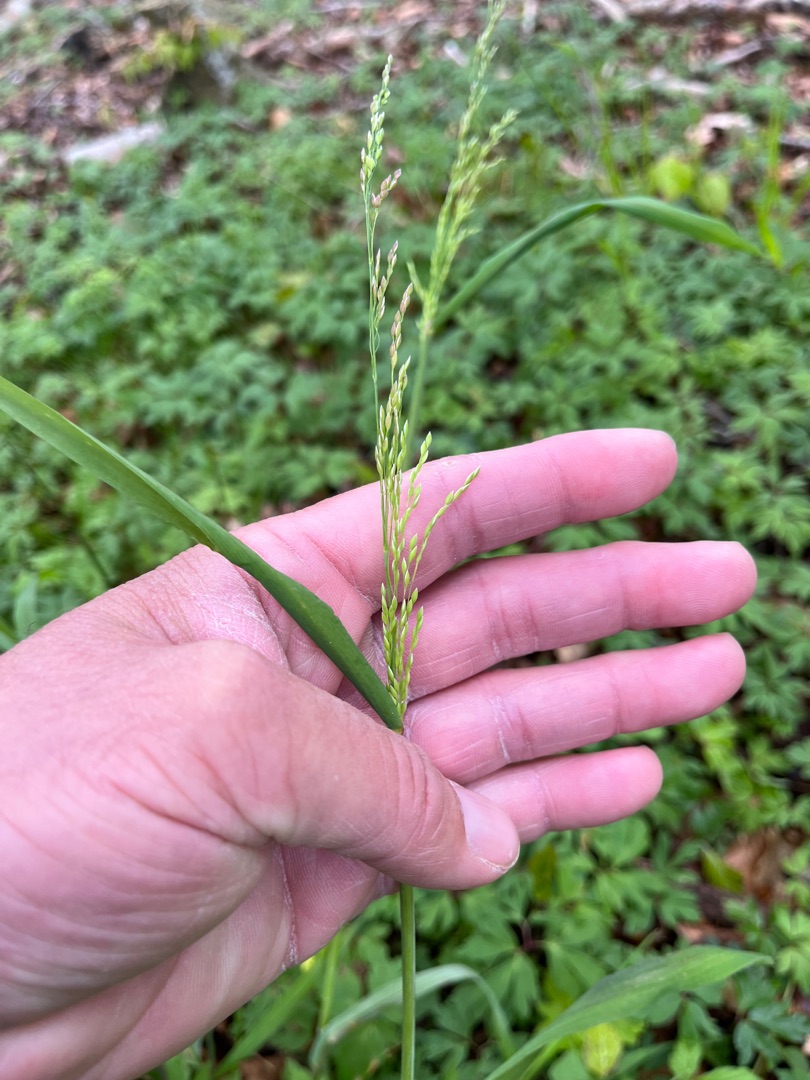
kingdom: Plantae
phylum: Tracheophyta
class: Liliopsida
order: Poales
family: Poaceae
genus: Milium
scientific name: Milium effusum
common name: Miliegræs
